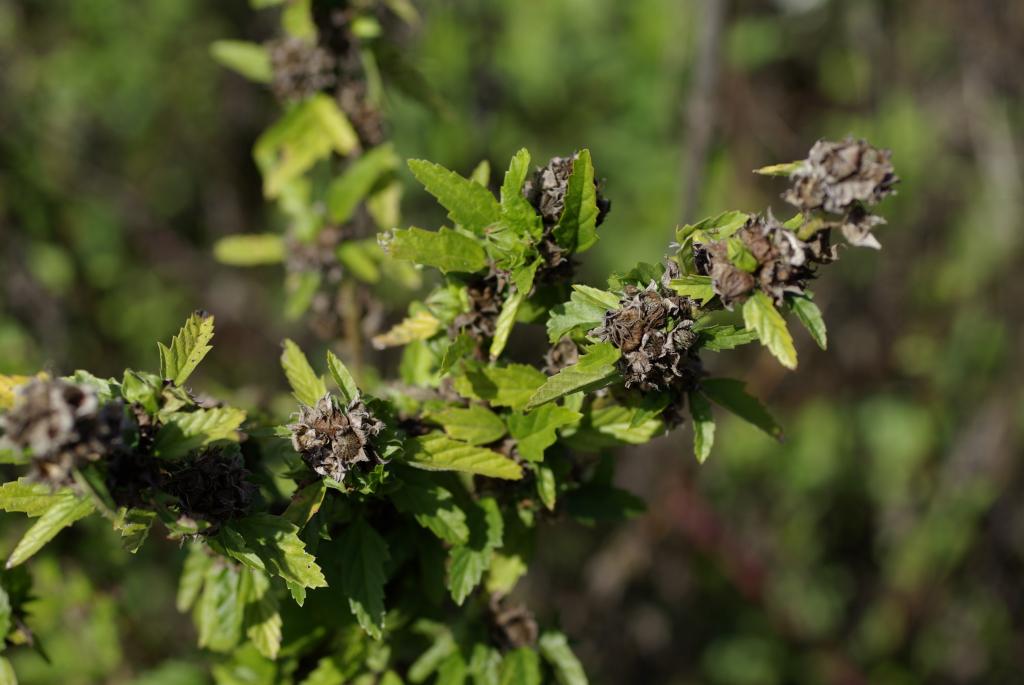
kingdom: Plantae
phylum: Tracheophyta
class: Magnoliopsida
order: Malvales
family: Malvaceae
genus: Sida
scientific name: Sida rhombifolia
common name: Queensland-hemp
